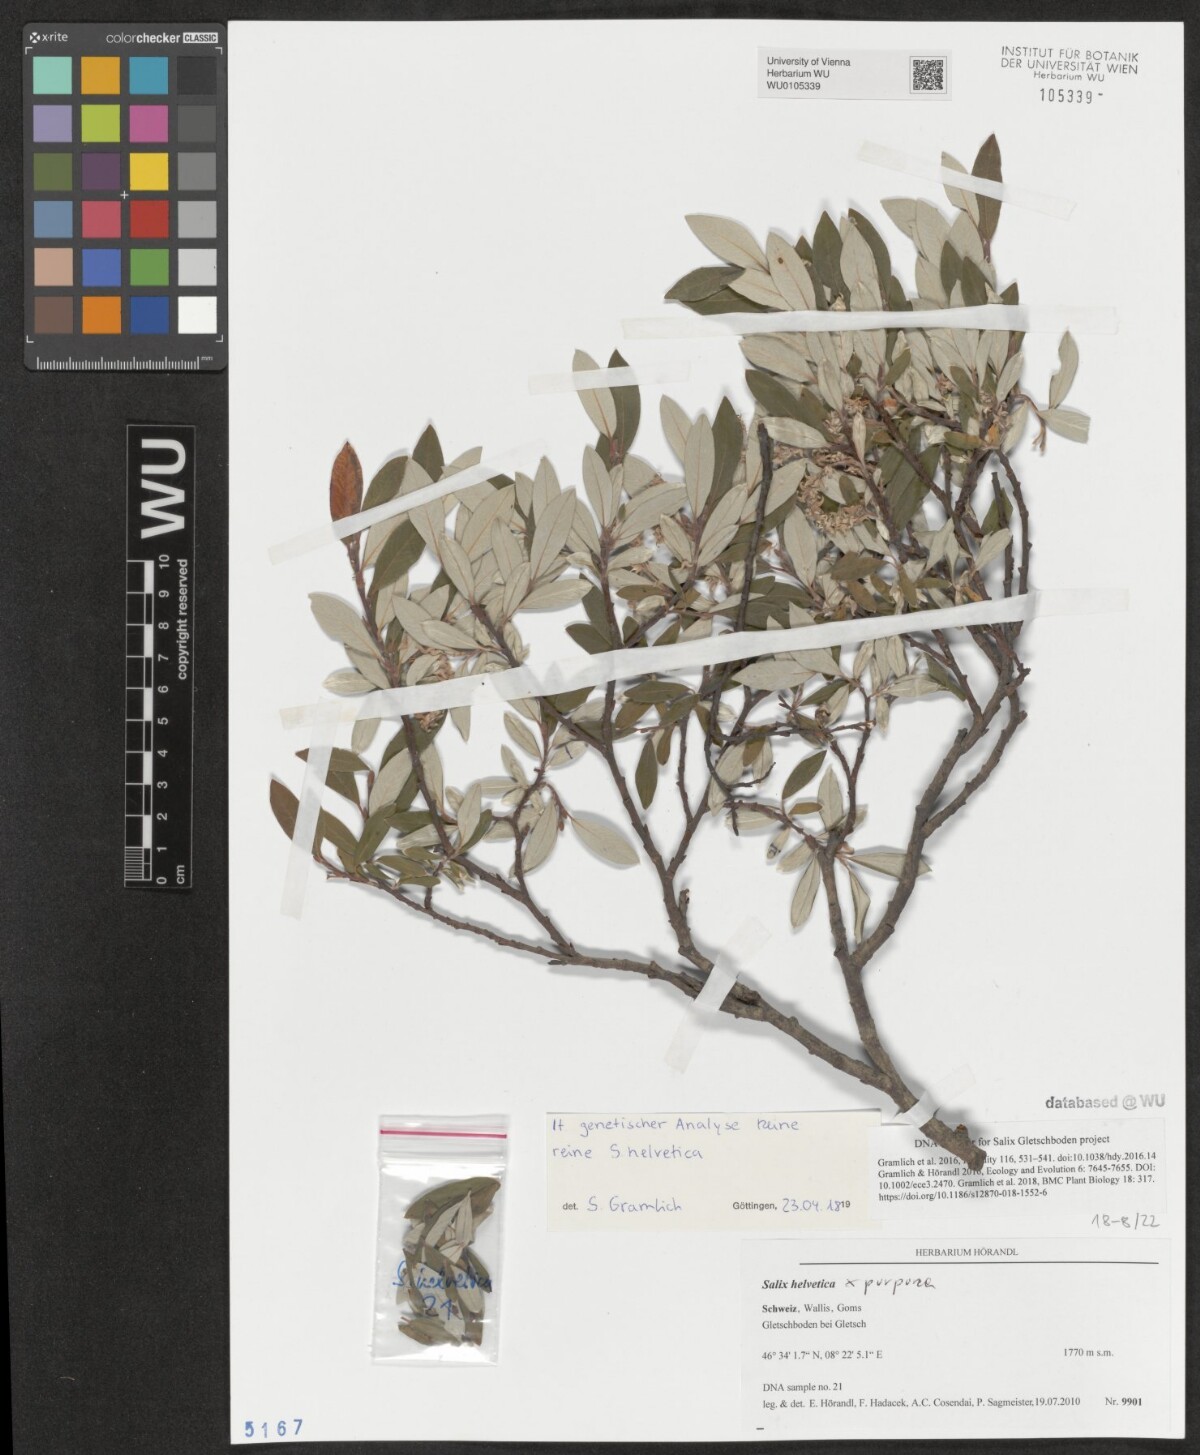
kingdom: Plantae
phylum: Tracheophyta
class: Magnoliopsida
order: Malpighiales
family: Salicaceae
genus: Salix
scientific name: Salix
